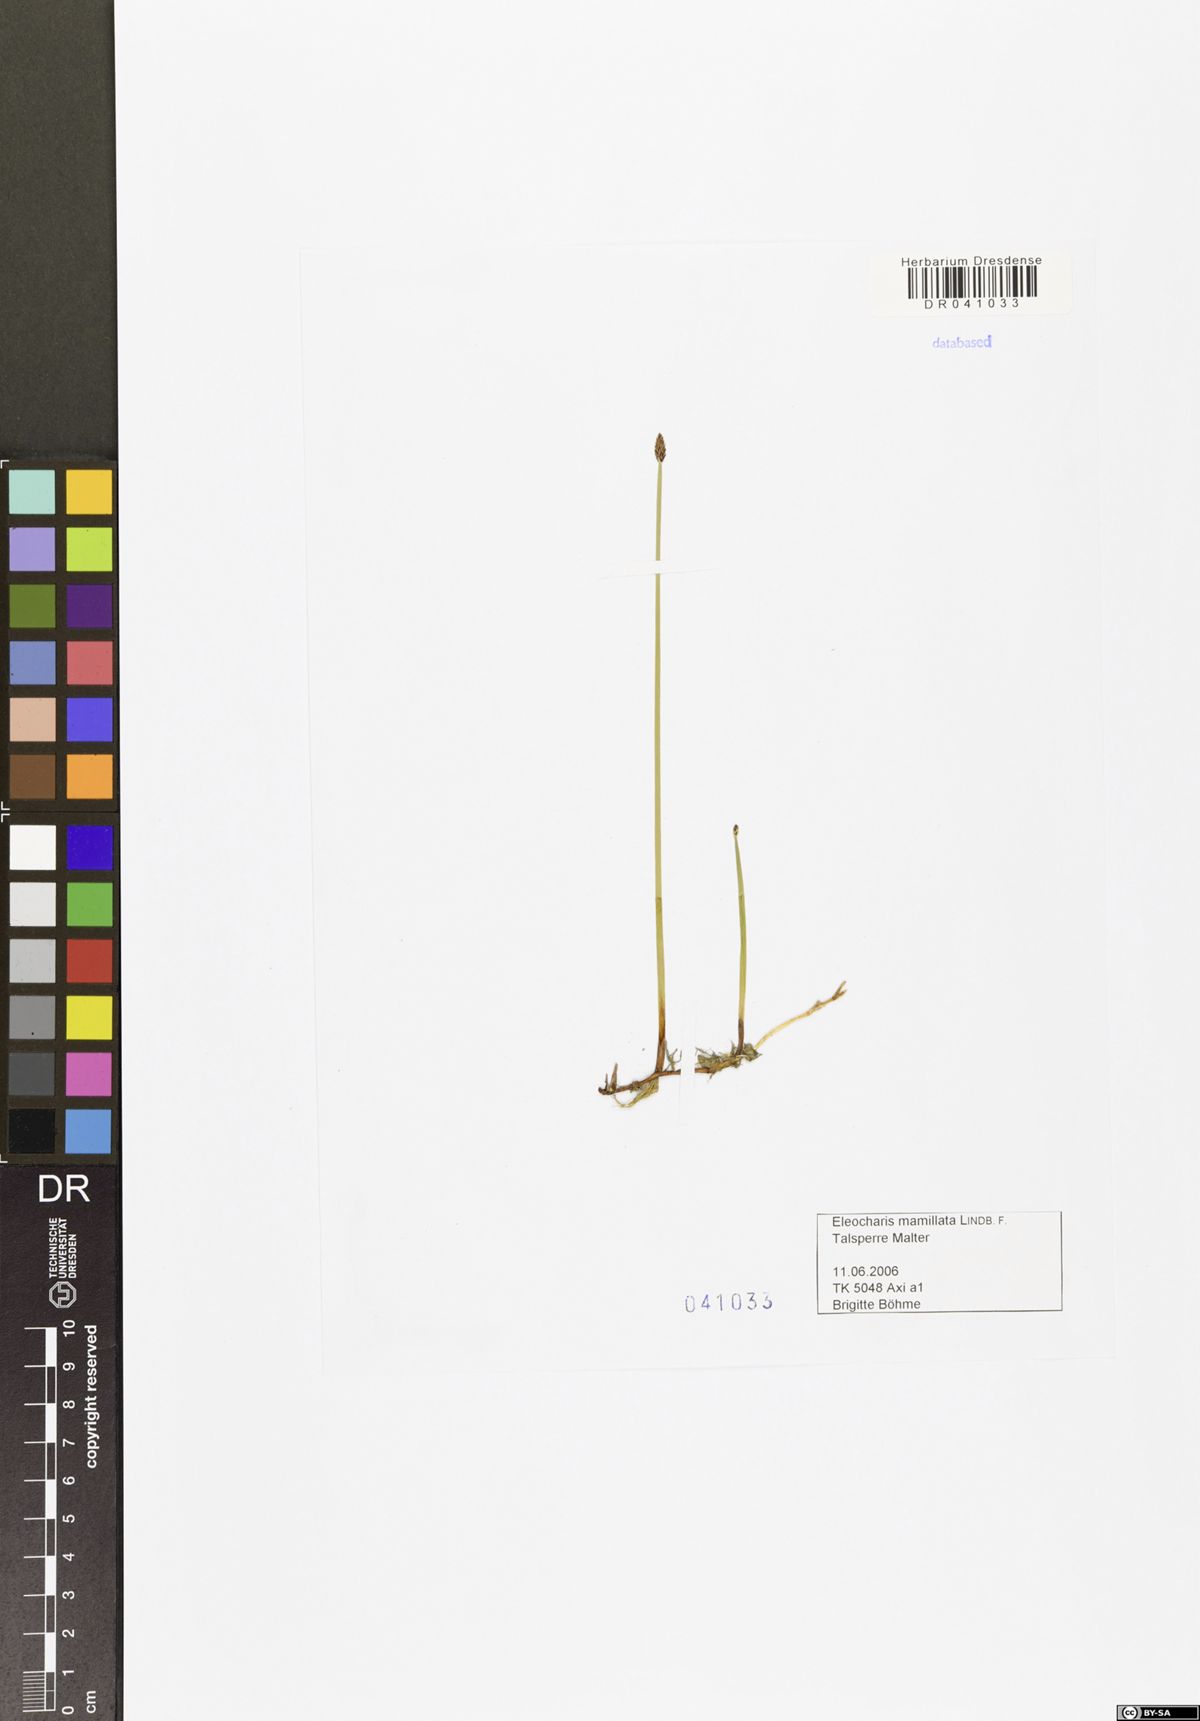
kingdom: Plantae
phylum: Tracheophyta
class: Liliopsida
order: Poales
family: Cyperaceae
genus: Eleocharis
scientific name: Eleocharis mamillata
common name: Northern spike-rush
